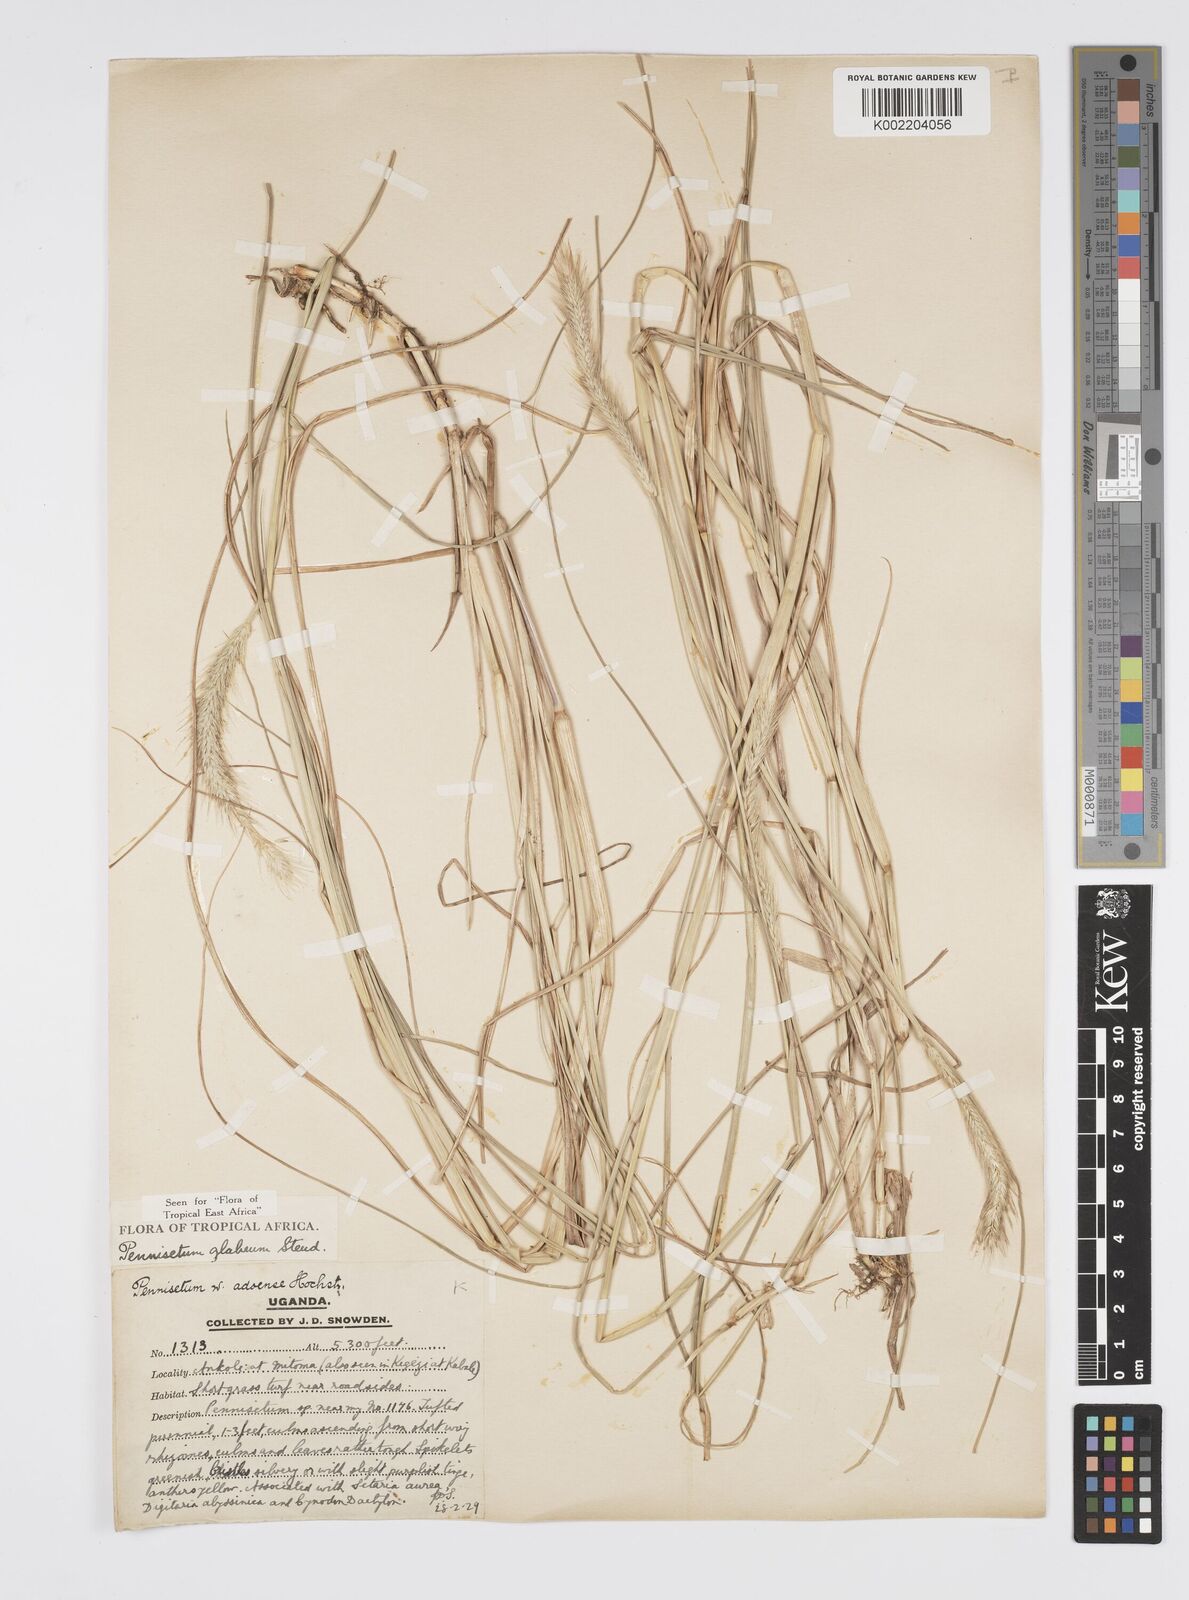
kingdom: Plantae
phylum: Tracheophyta
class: Liliopsida
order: Poales
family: Poaceae
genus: Cenchrus
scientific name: Cenchrus geniculatus
